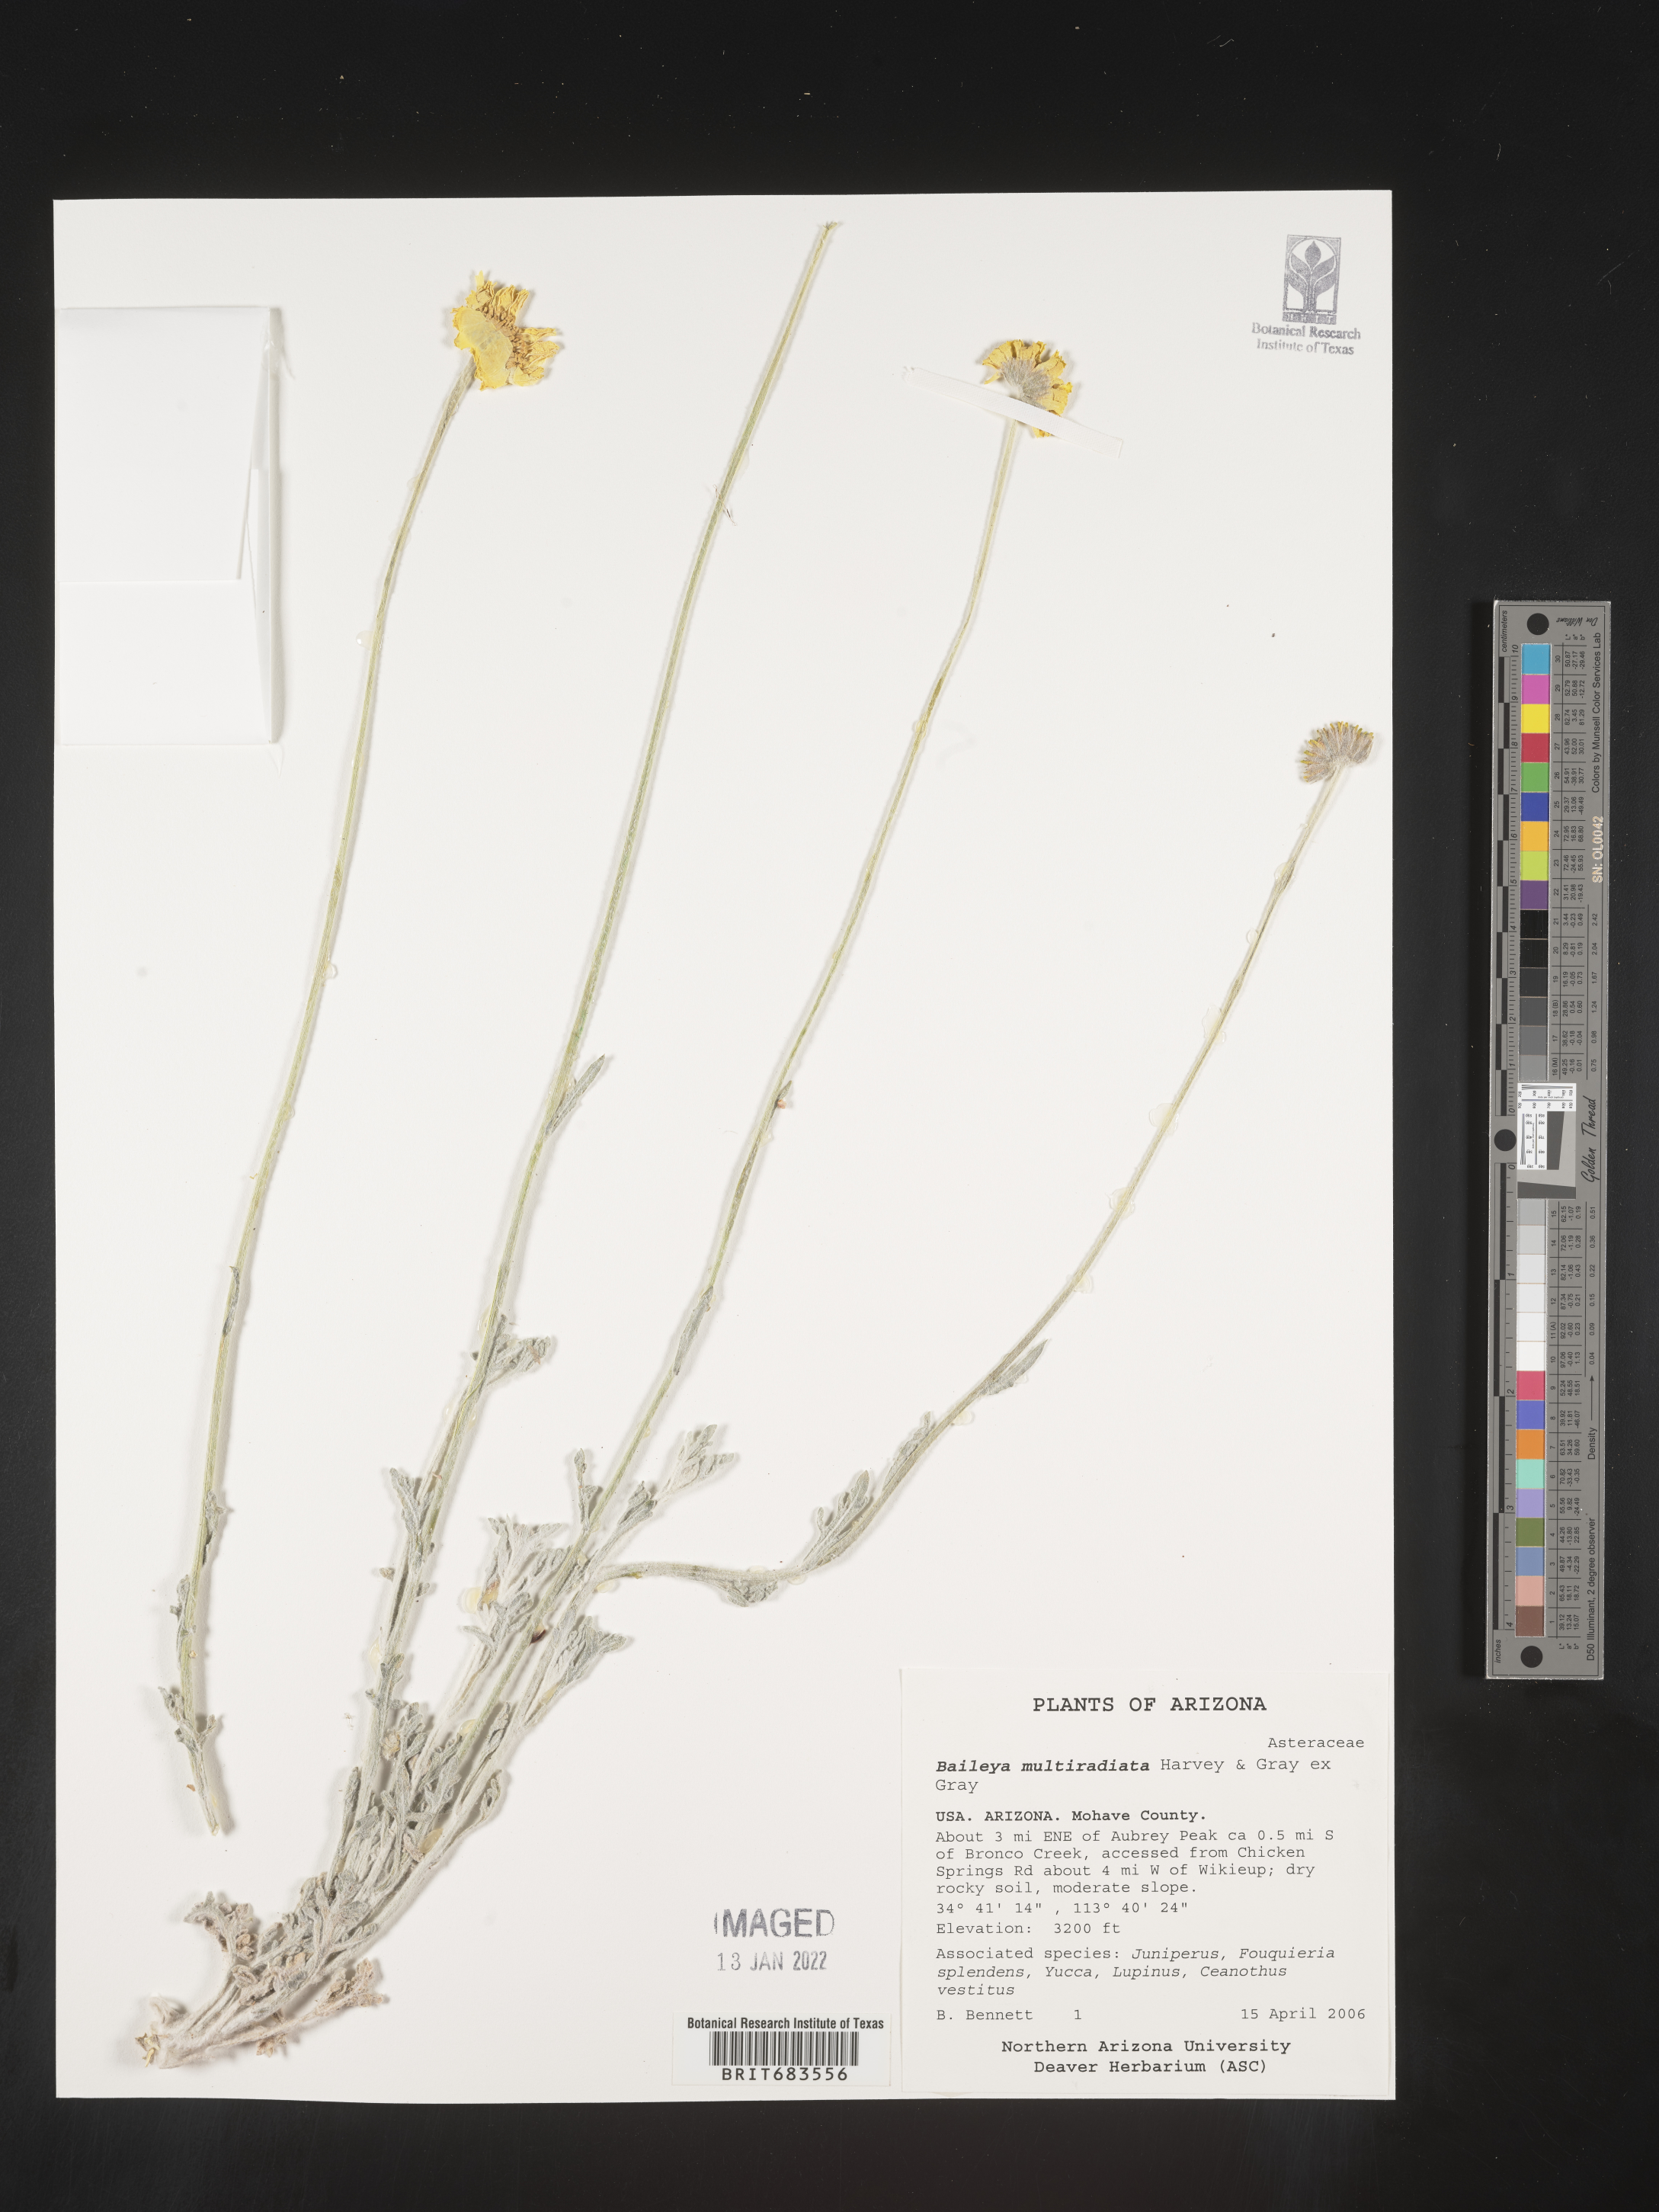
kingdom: Plantae
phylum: Tracheophyta
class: Magnoliopsida
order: Asterales
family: Asteraceae
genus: Baileya
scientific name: Baileya multiradiata
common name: Desert-marigold
